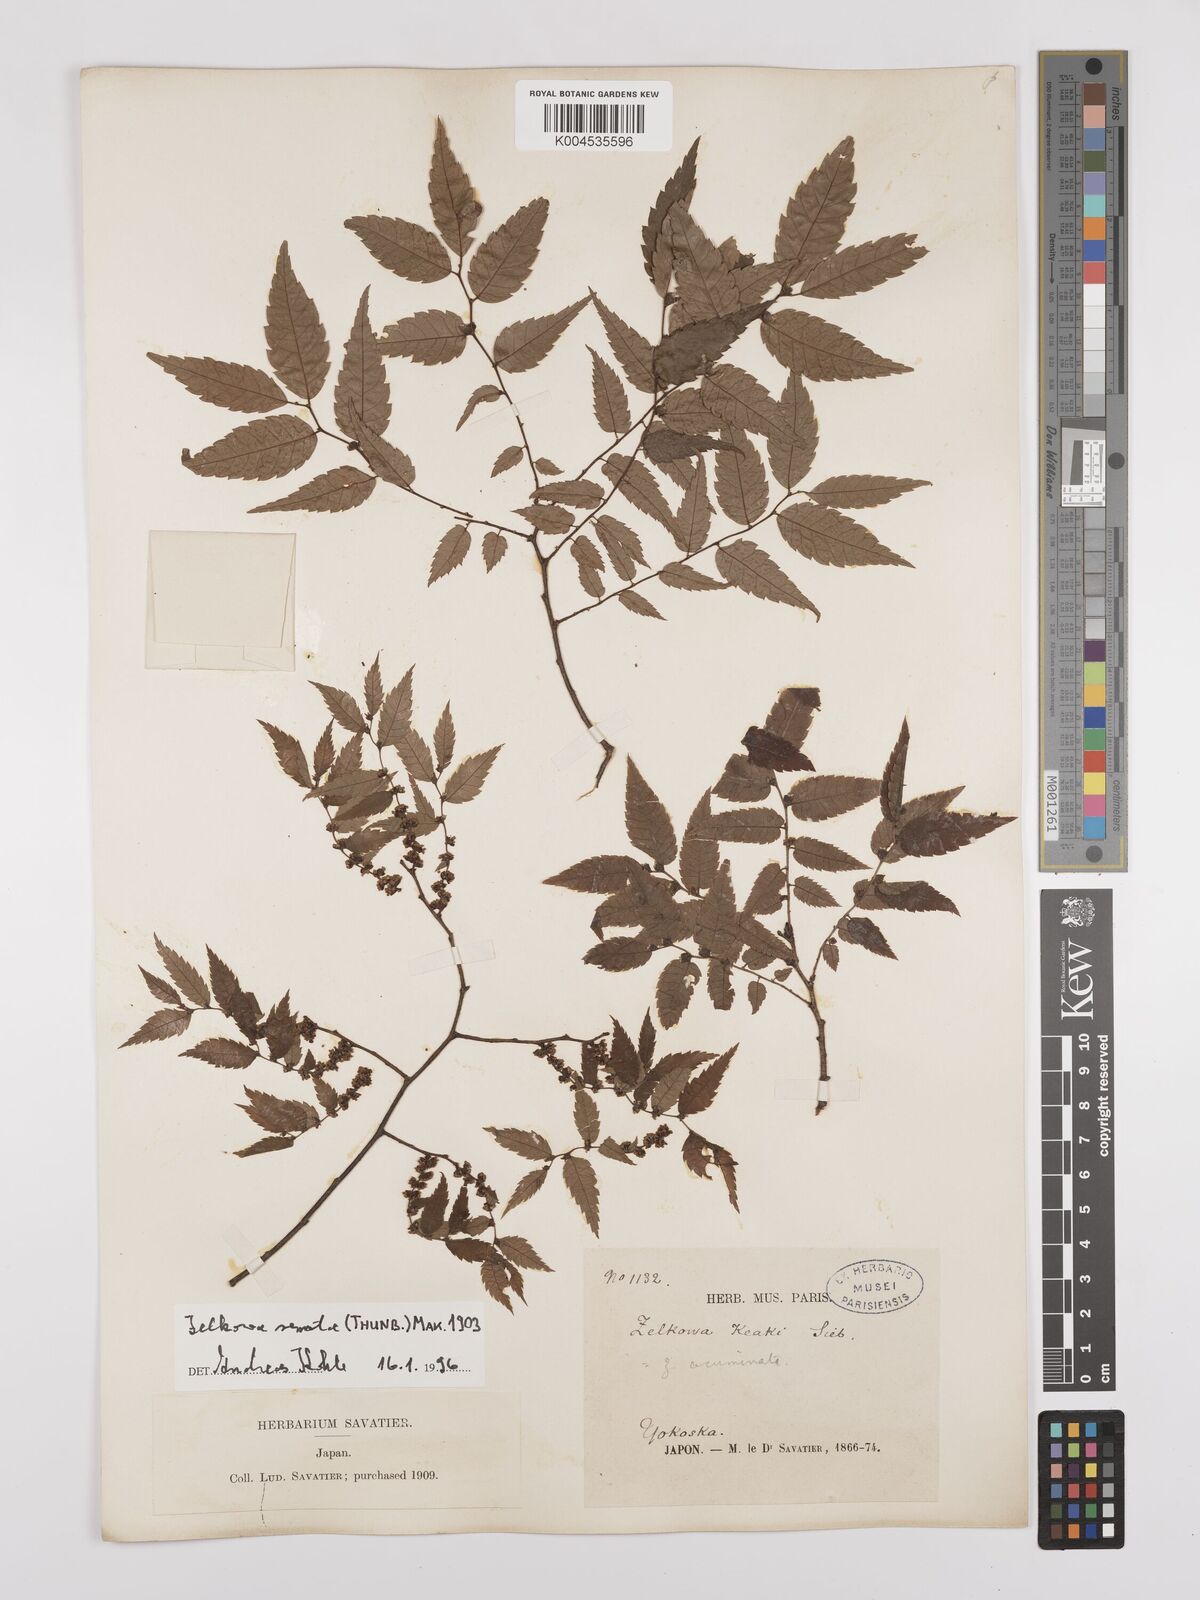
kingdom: Plantae
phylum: Tracheophyta
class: Magnoliopsida
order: Rosales
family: Ulmaceae
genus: Zelkova
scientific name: Zelkova serrata
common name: Japanese zelkova
